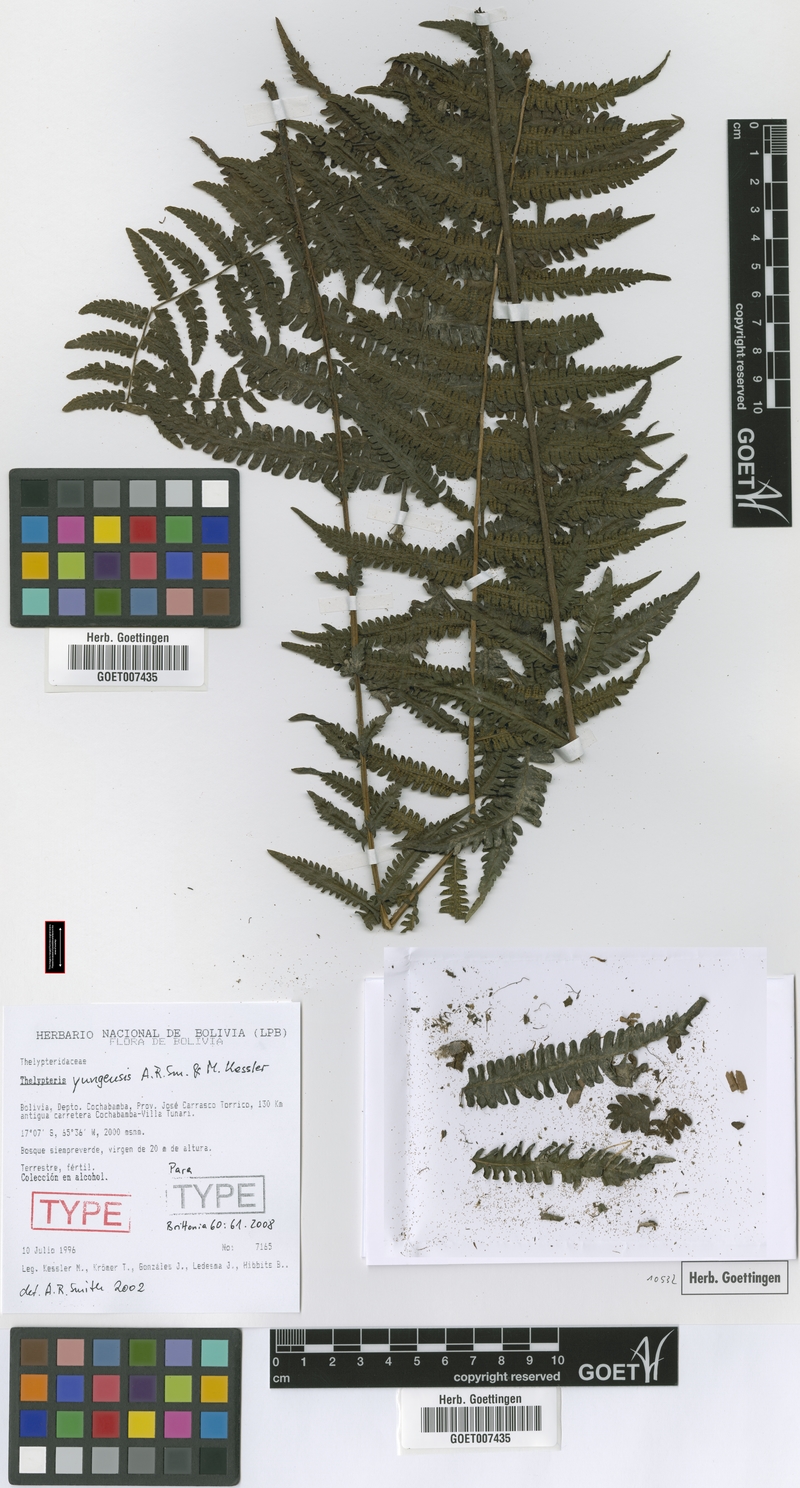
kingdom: Plantae
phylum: Tracheophyta
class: Polypodiopsida
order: Polypodiales
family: Thelypteridaceae
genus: Amauropelta
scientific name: Amauropelta yungensis
